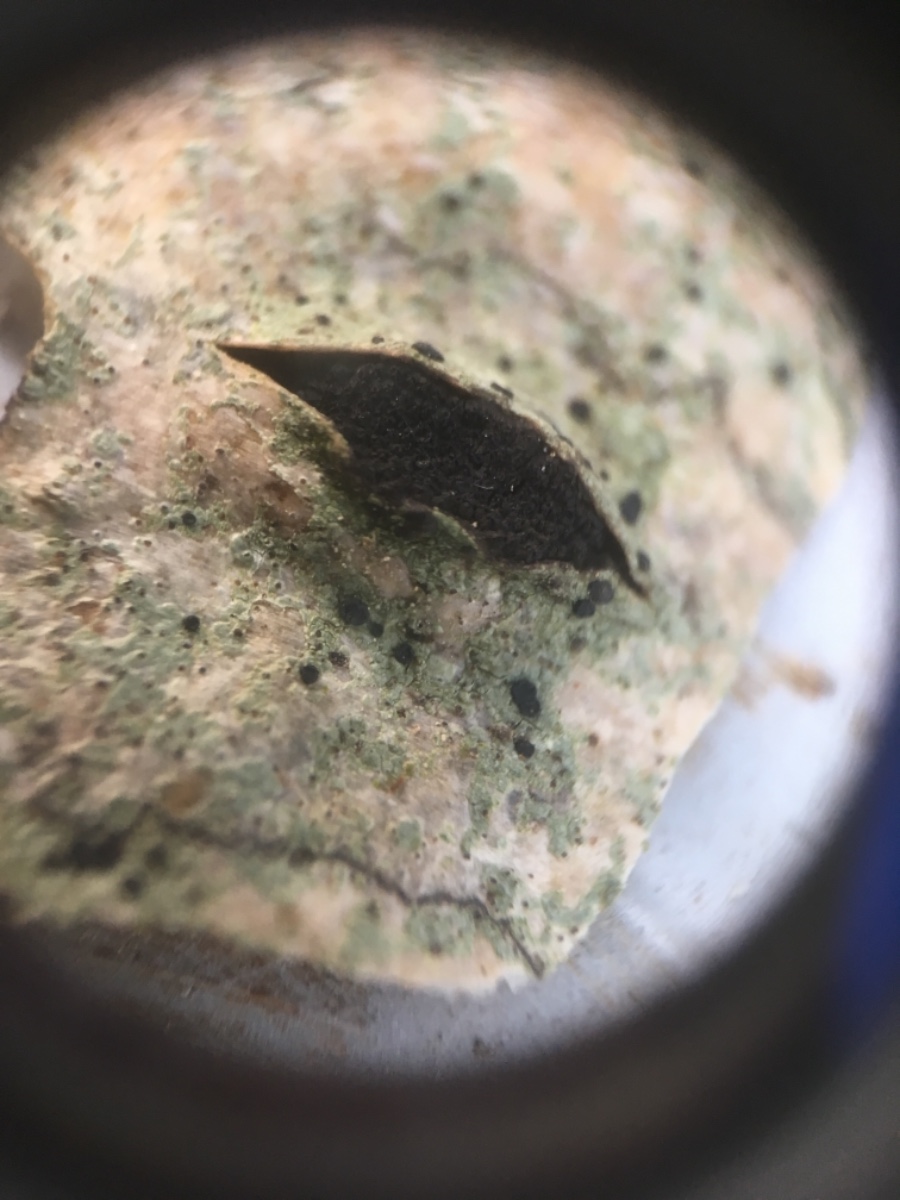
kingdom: Fungi
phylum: Ascomycota
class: Sordariomycetes
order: Xylariales
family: Diatrypaceae
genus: Eutypella
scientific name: Eutypella sorbi
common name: rønne-kulskorpe
